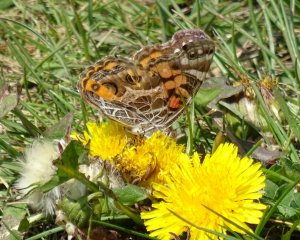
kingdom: Animalia
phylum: Arthropoda
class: Insecta
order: Lepidoptera
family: Nymphalidae
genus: Vanessa
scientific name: Vanessa virginiensis
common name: American Lady
